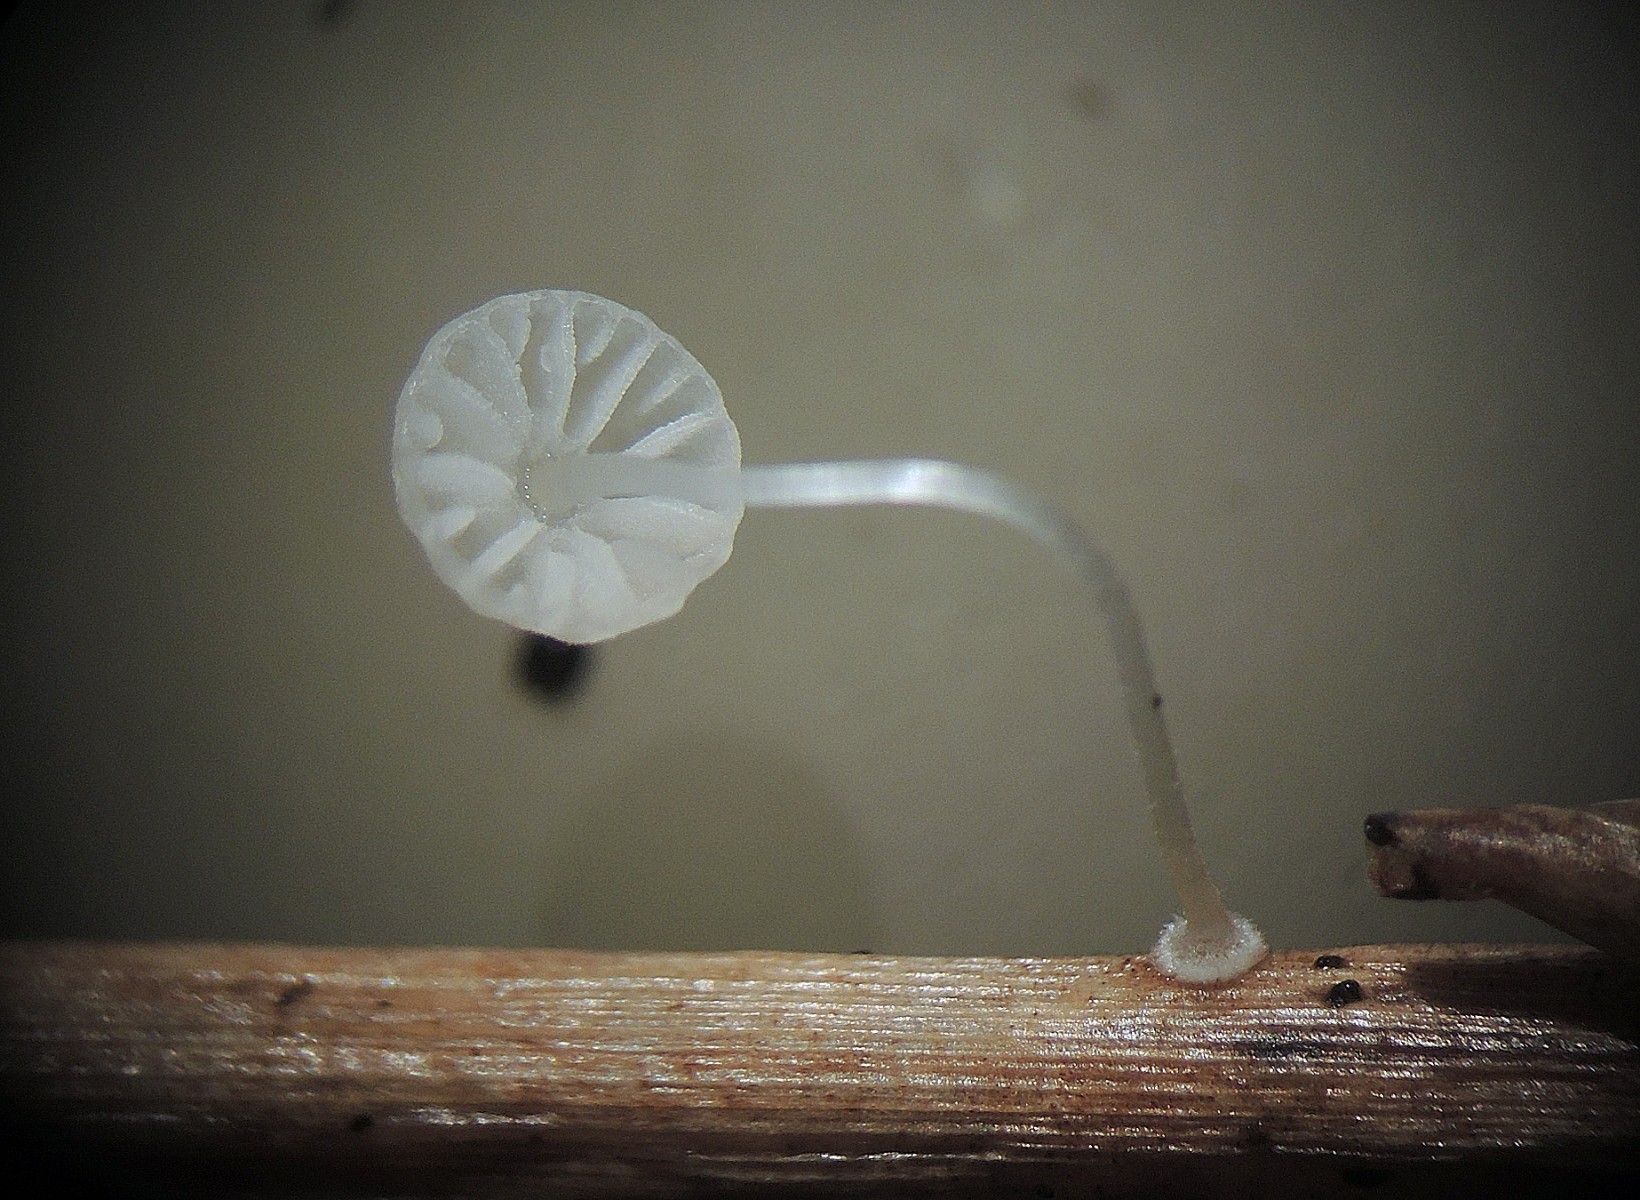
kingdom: Fungi
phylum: Basidiomycota
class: Agaricomycetes
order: Agaricales
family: Mycenaceae
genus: Mycena
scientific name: Mycena bulbosa
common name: siv-huesvamp
